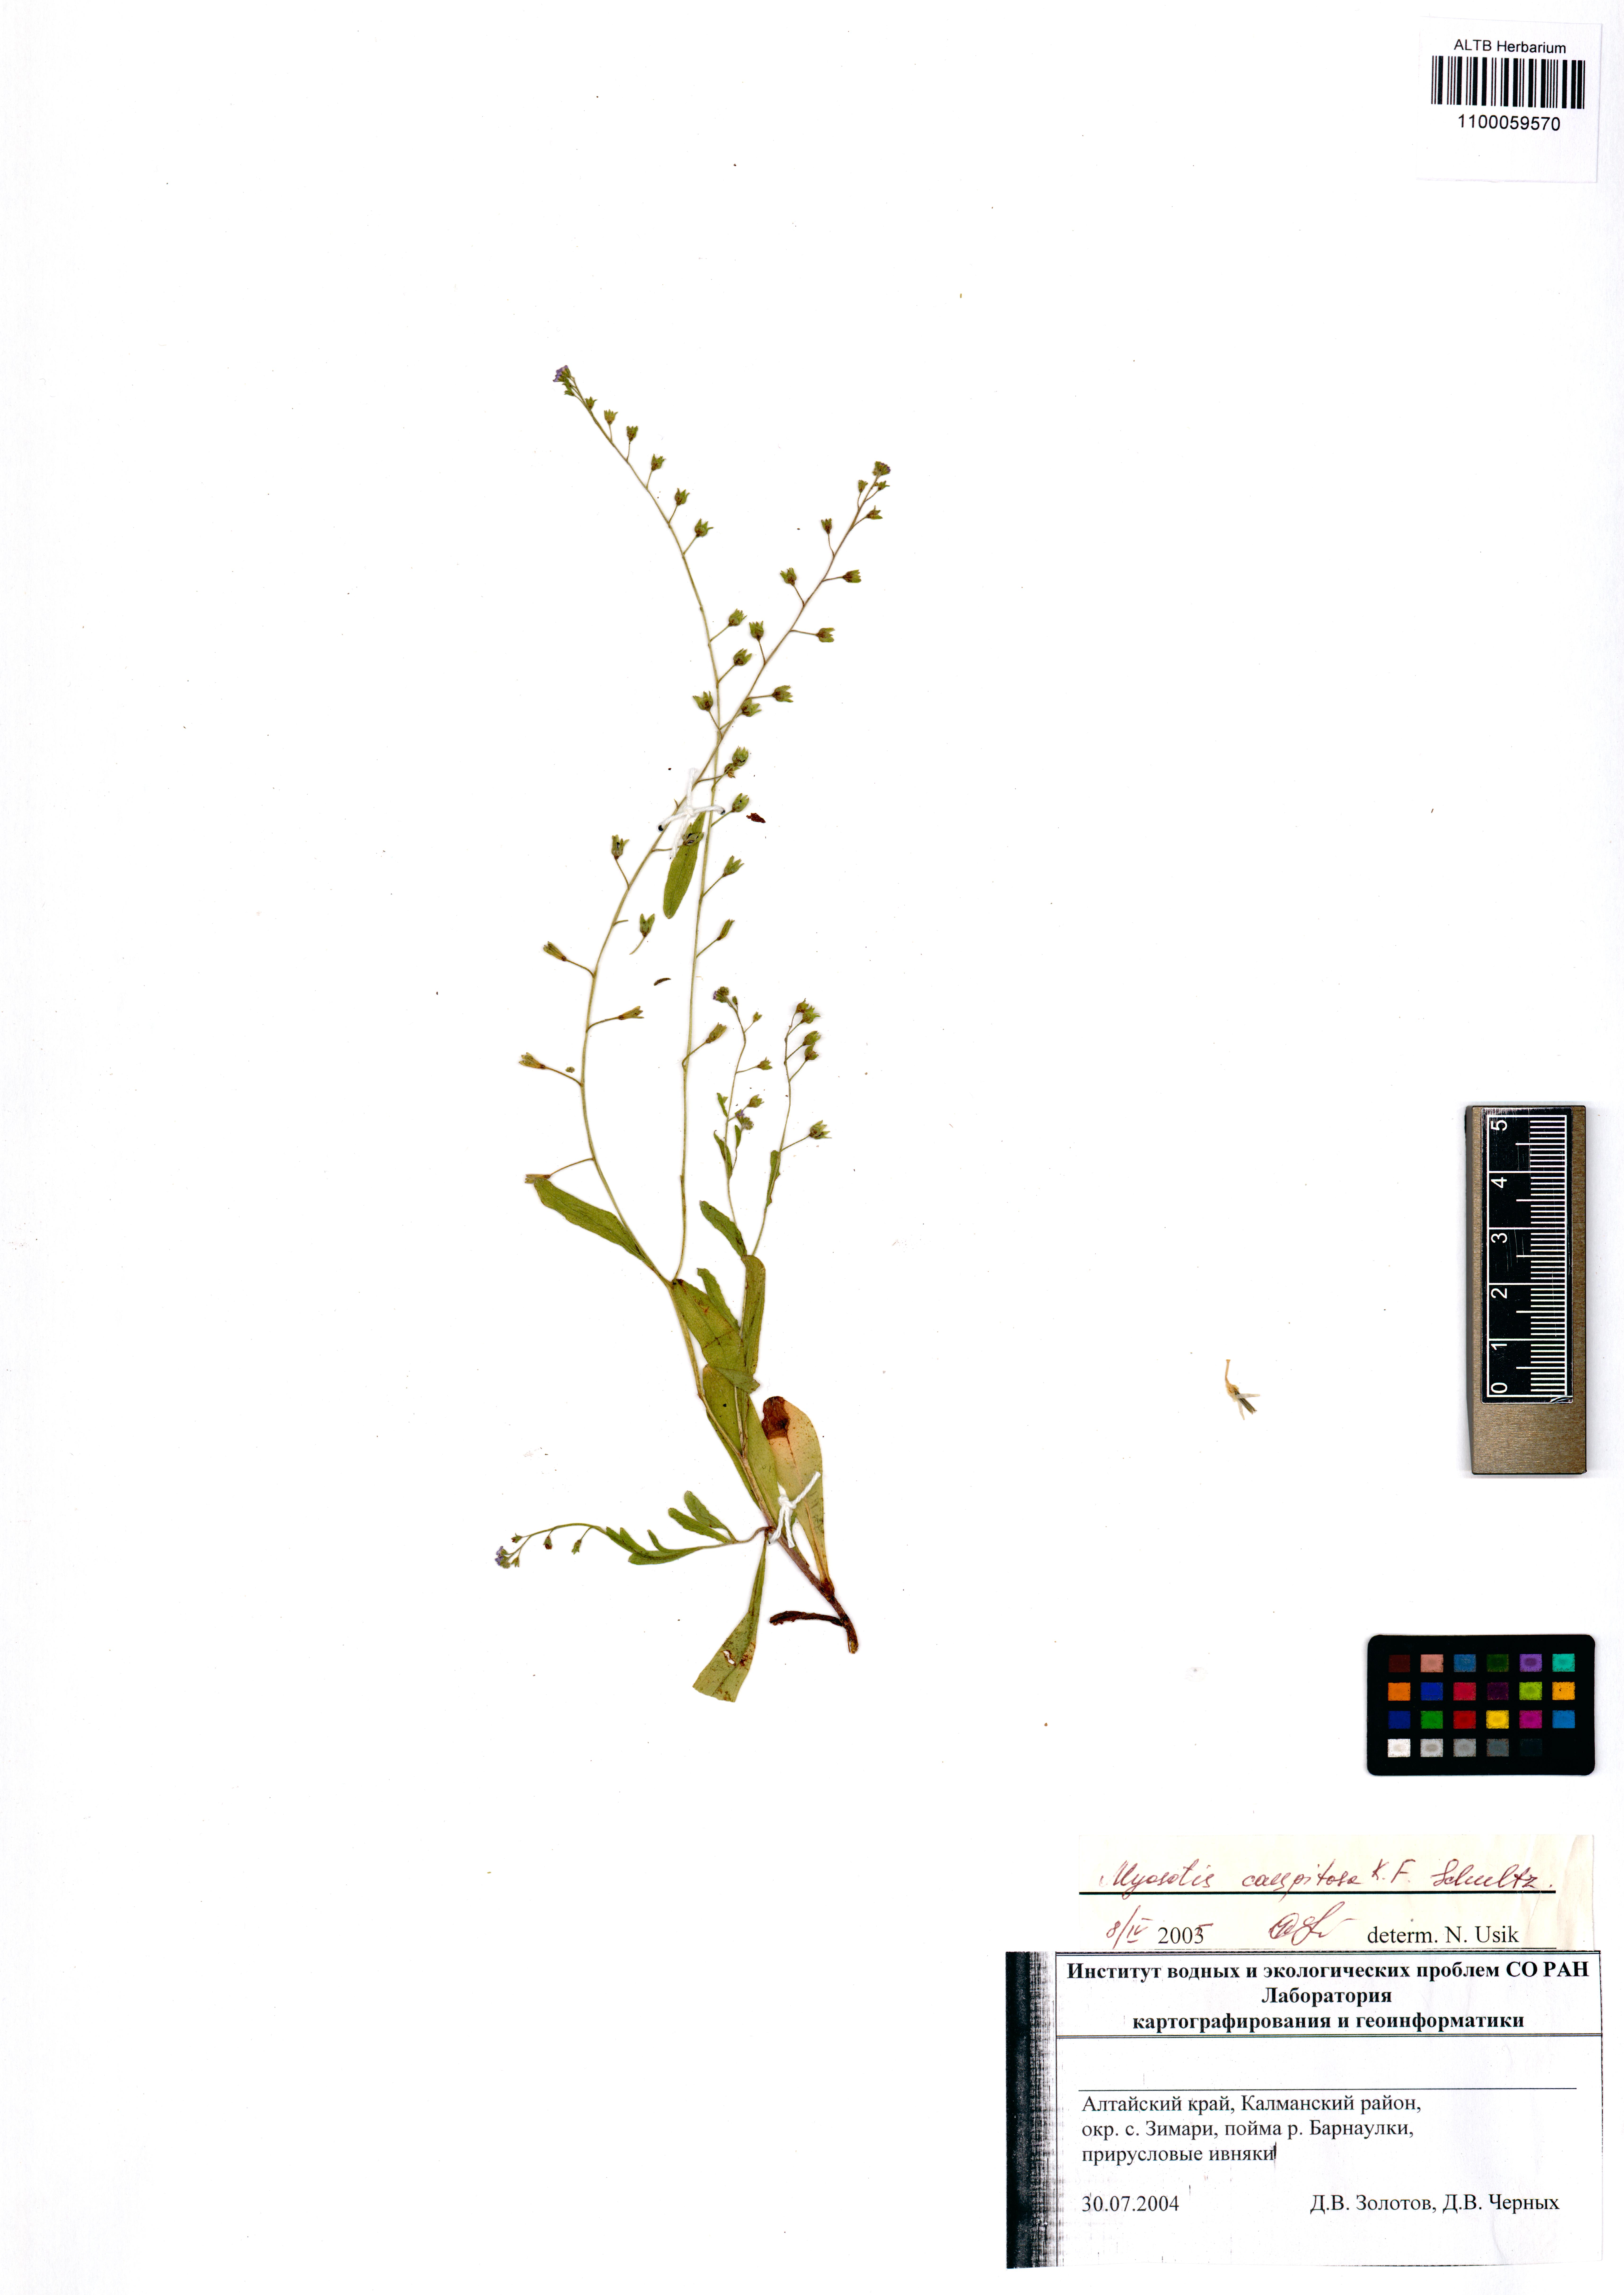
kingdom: Plantae
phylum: Tracheophyta
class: Magnoliopsida
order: Boraginales
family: Boraginaceae
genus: Myosotis
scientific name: Myosotis laxa
